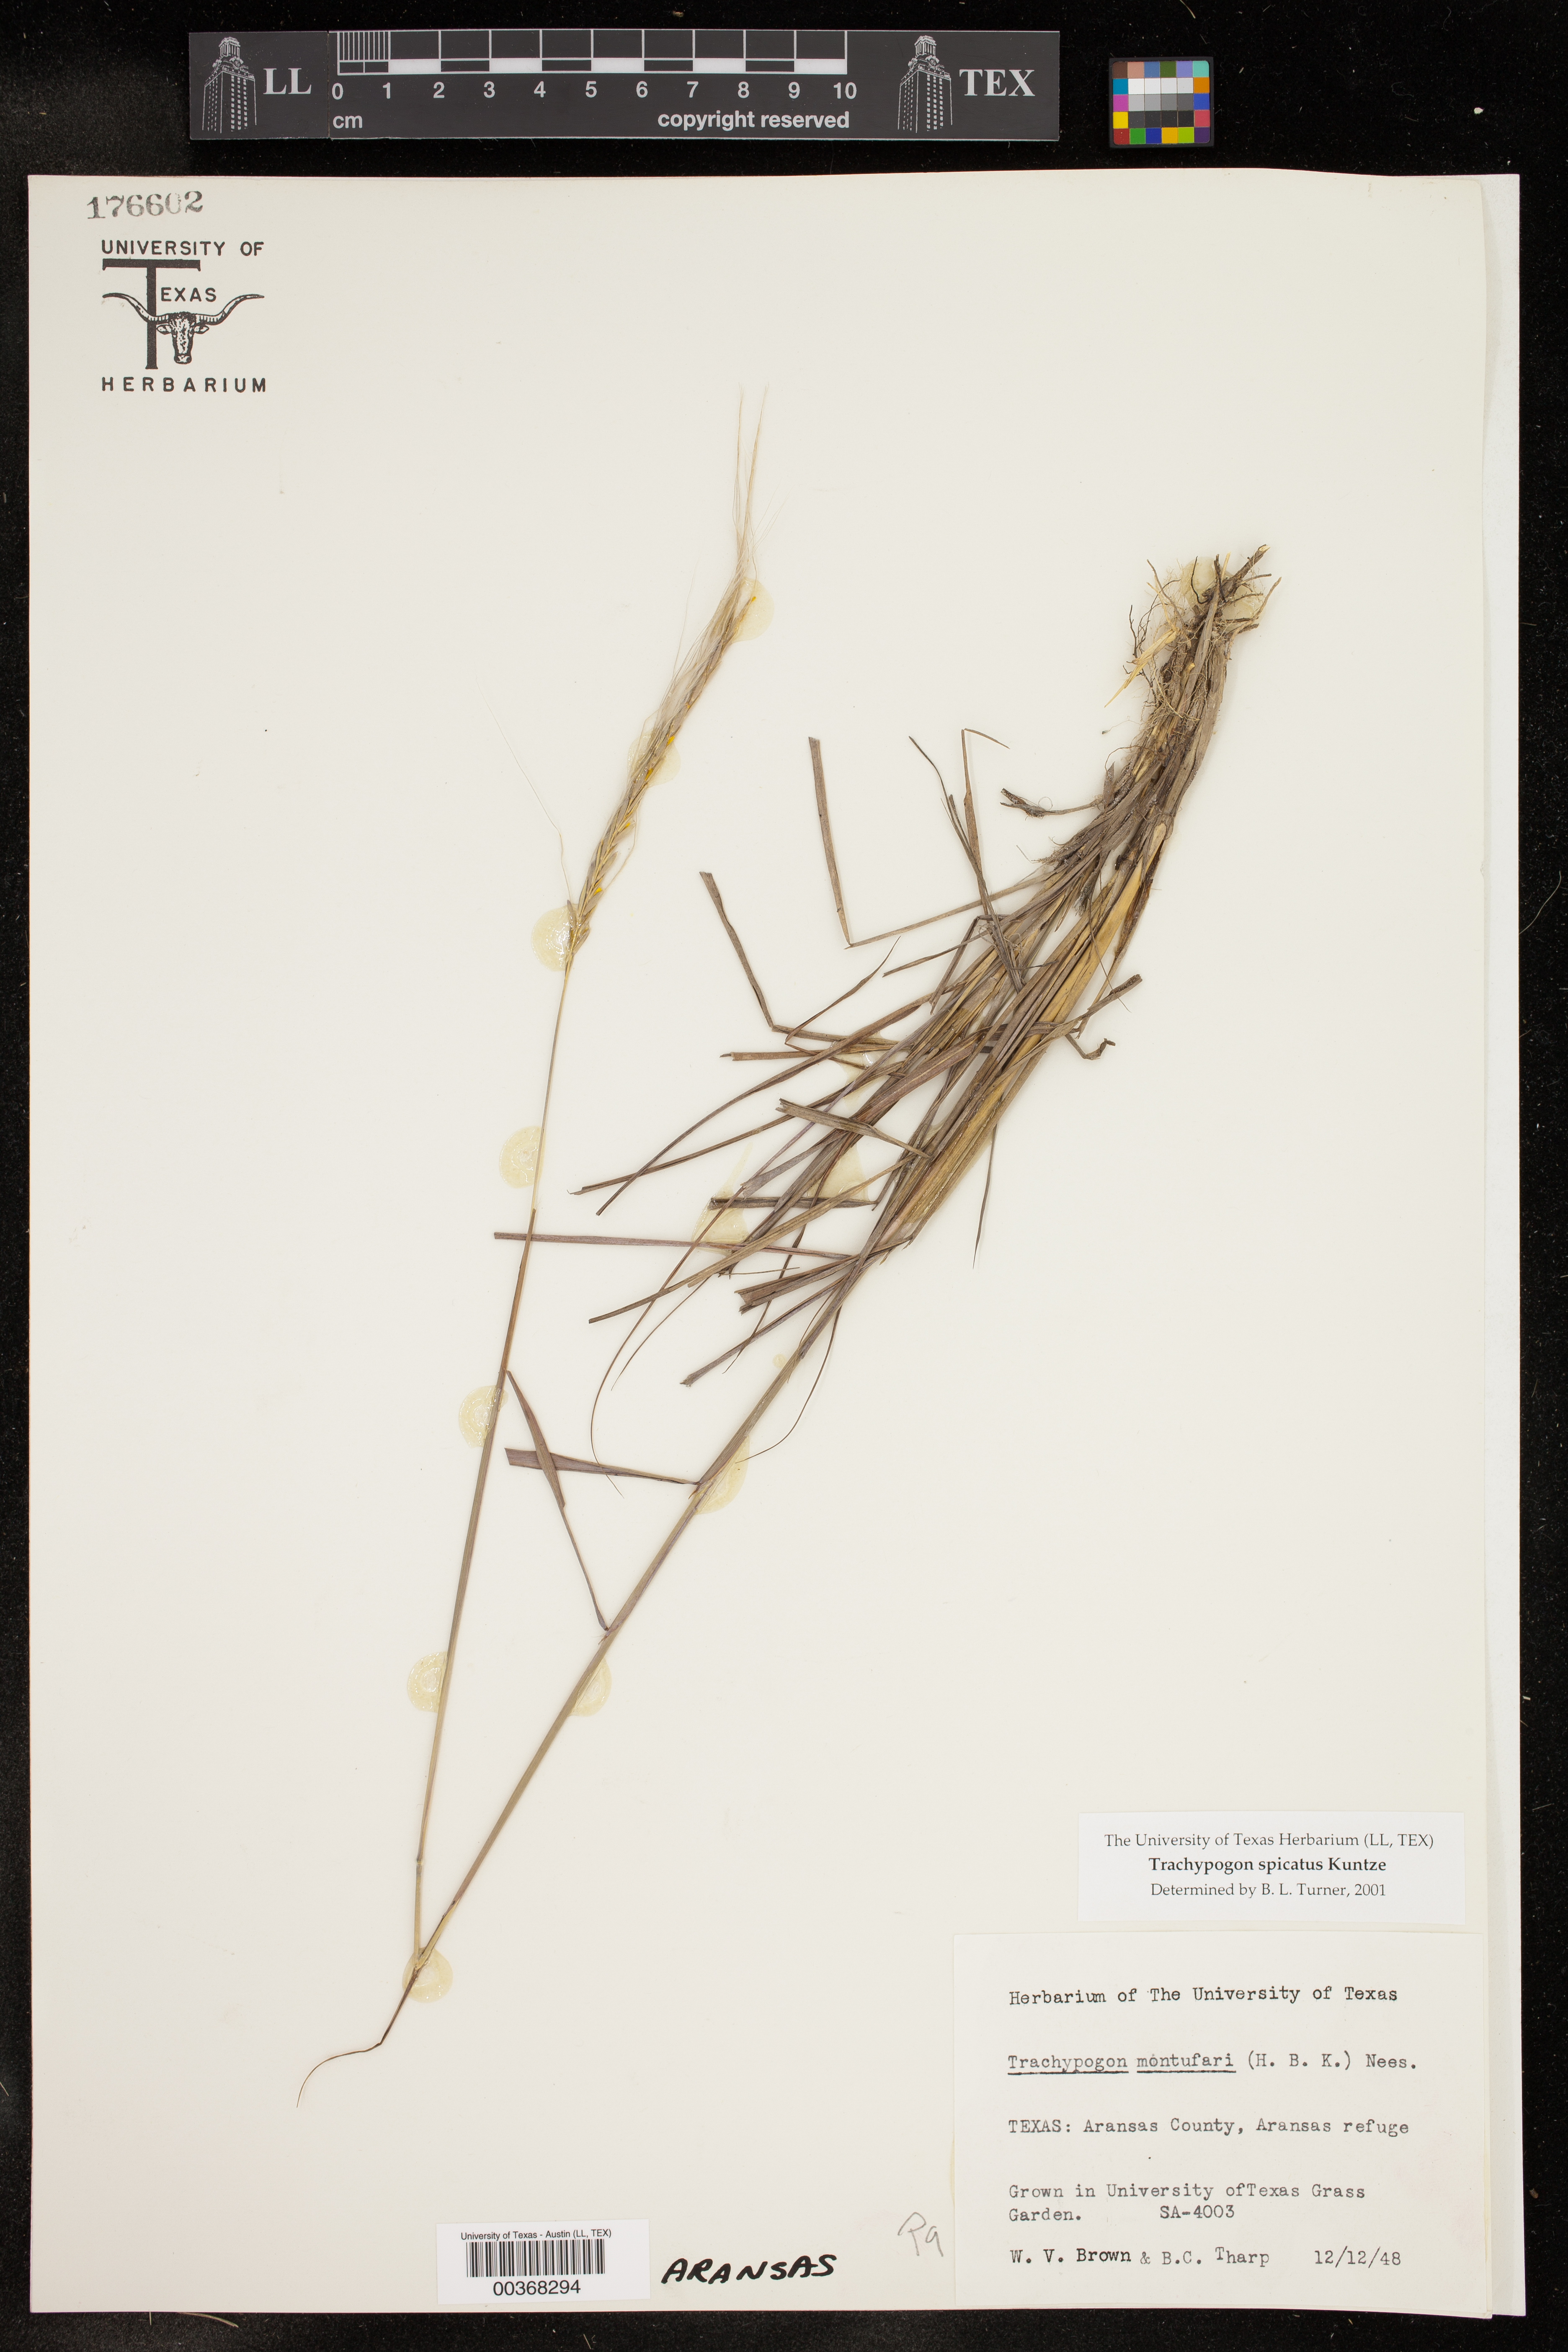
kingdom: Plantae
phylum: Tracheophyta
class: Liliopsida
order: Poales
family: Poaceae
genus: Trachypogon
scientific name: Trachypogon spicatus
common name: Crinkle-awn
